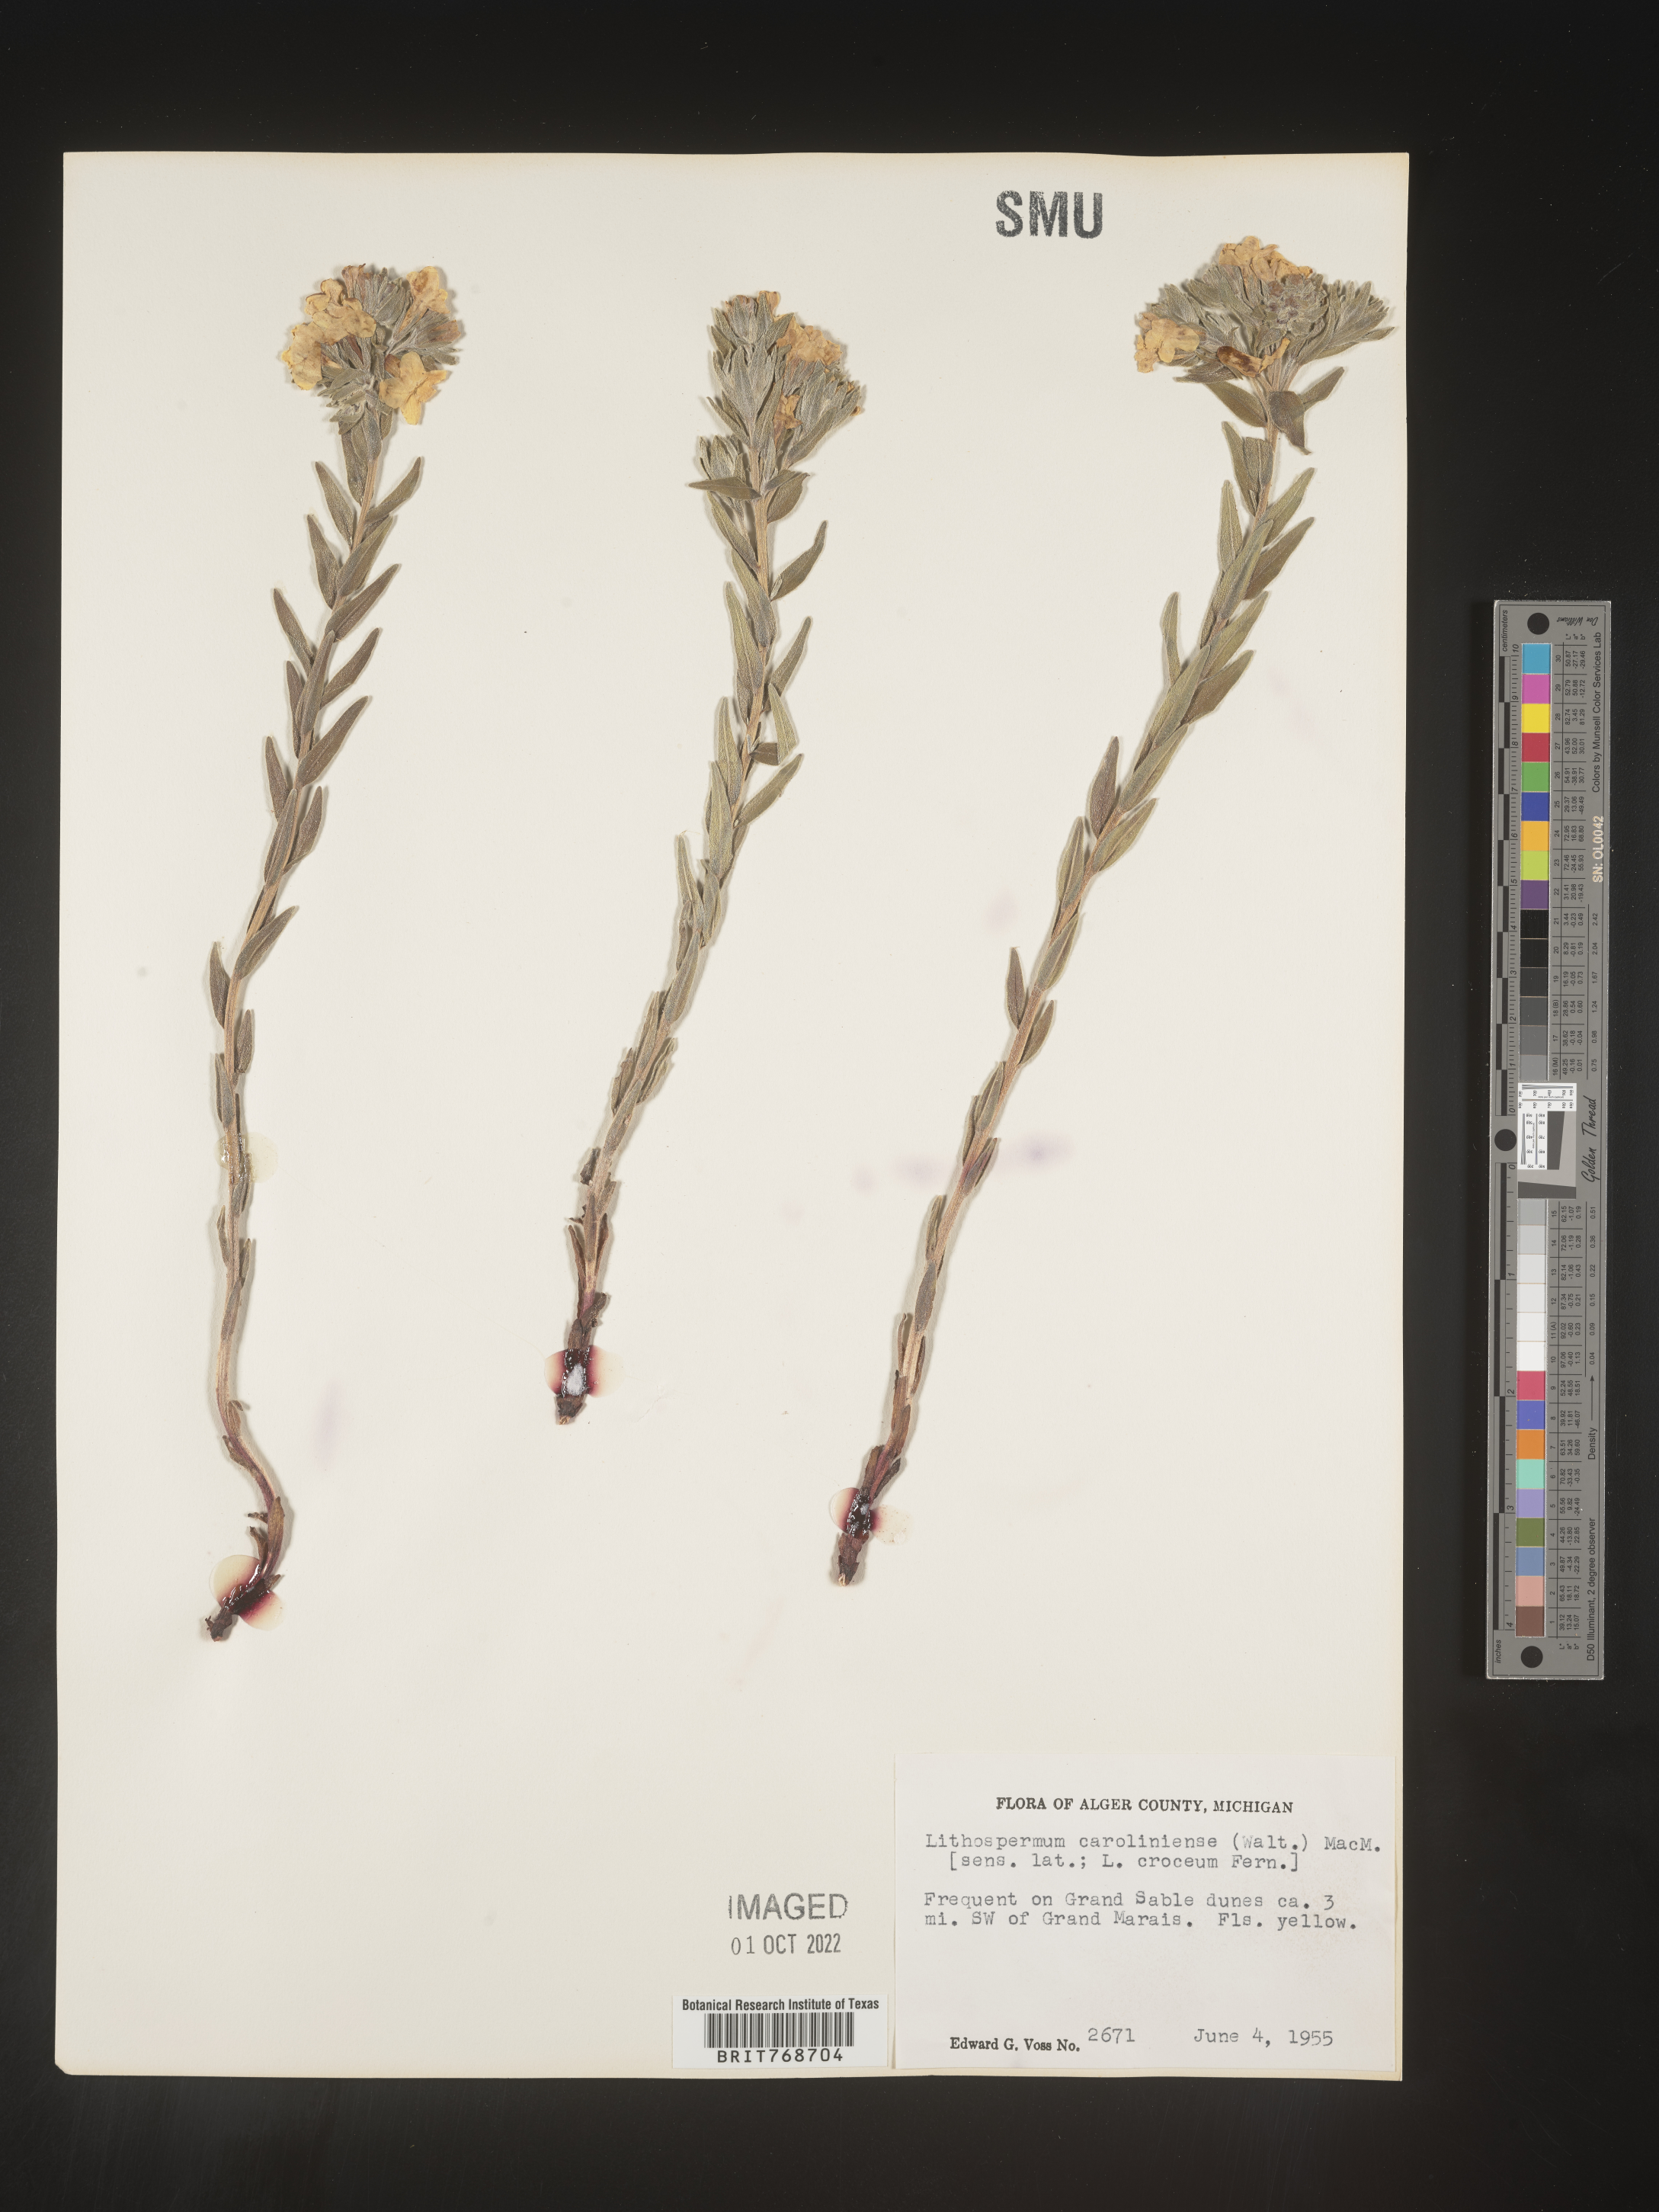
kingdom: Plantae
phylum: Tracheophyta
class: Magnoliopsida
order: Boraginales
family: Boraginaceae
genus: Lithospermum
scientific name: Lithospermum caroliniense
